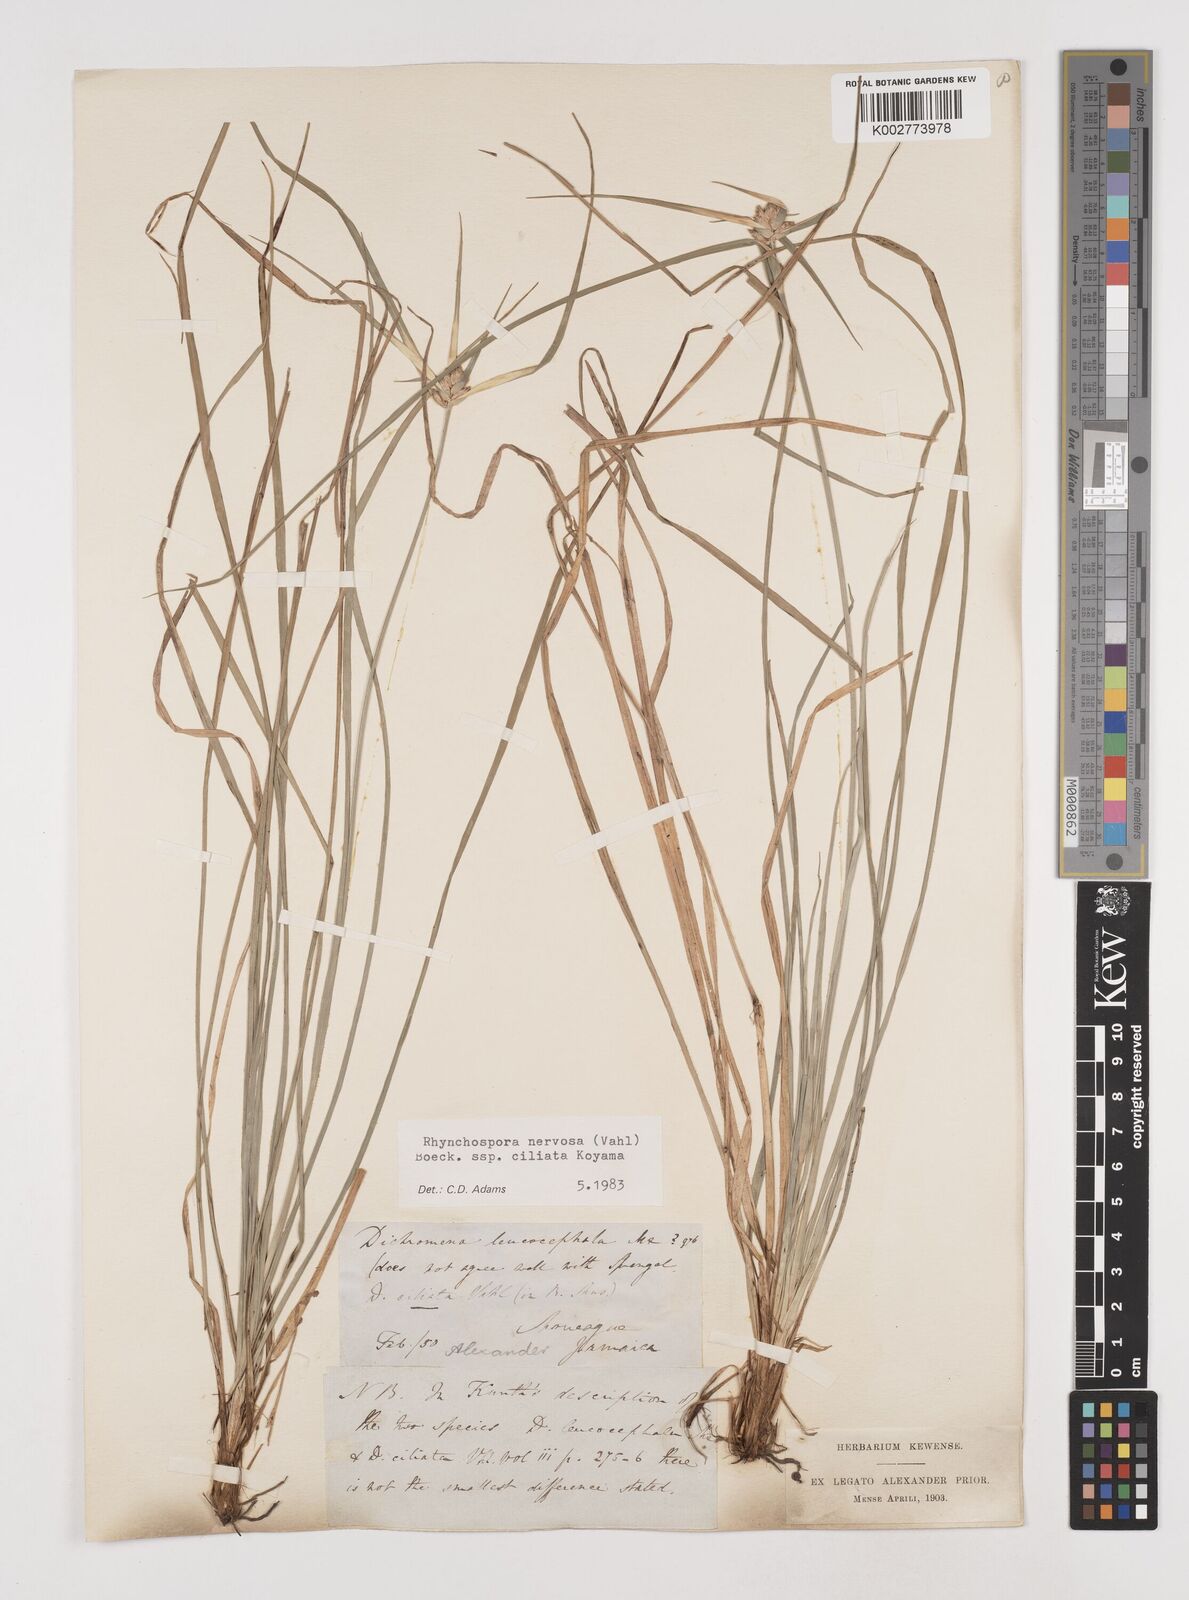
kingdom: Plantae
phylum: Tracheophyta
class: Liliopsida
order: Poales
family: Cyperaceae
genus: Rhynchospora
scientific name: Rhynchospora pura
